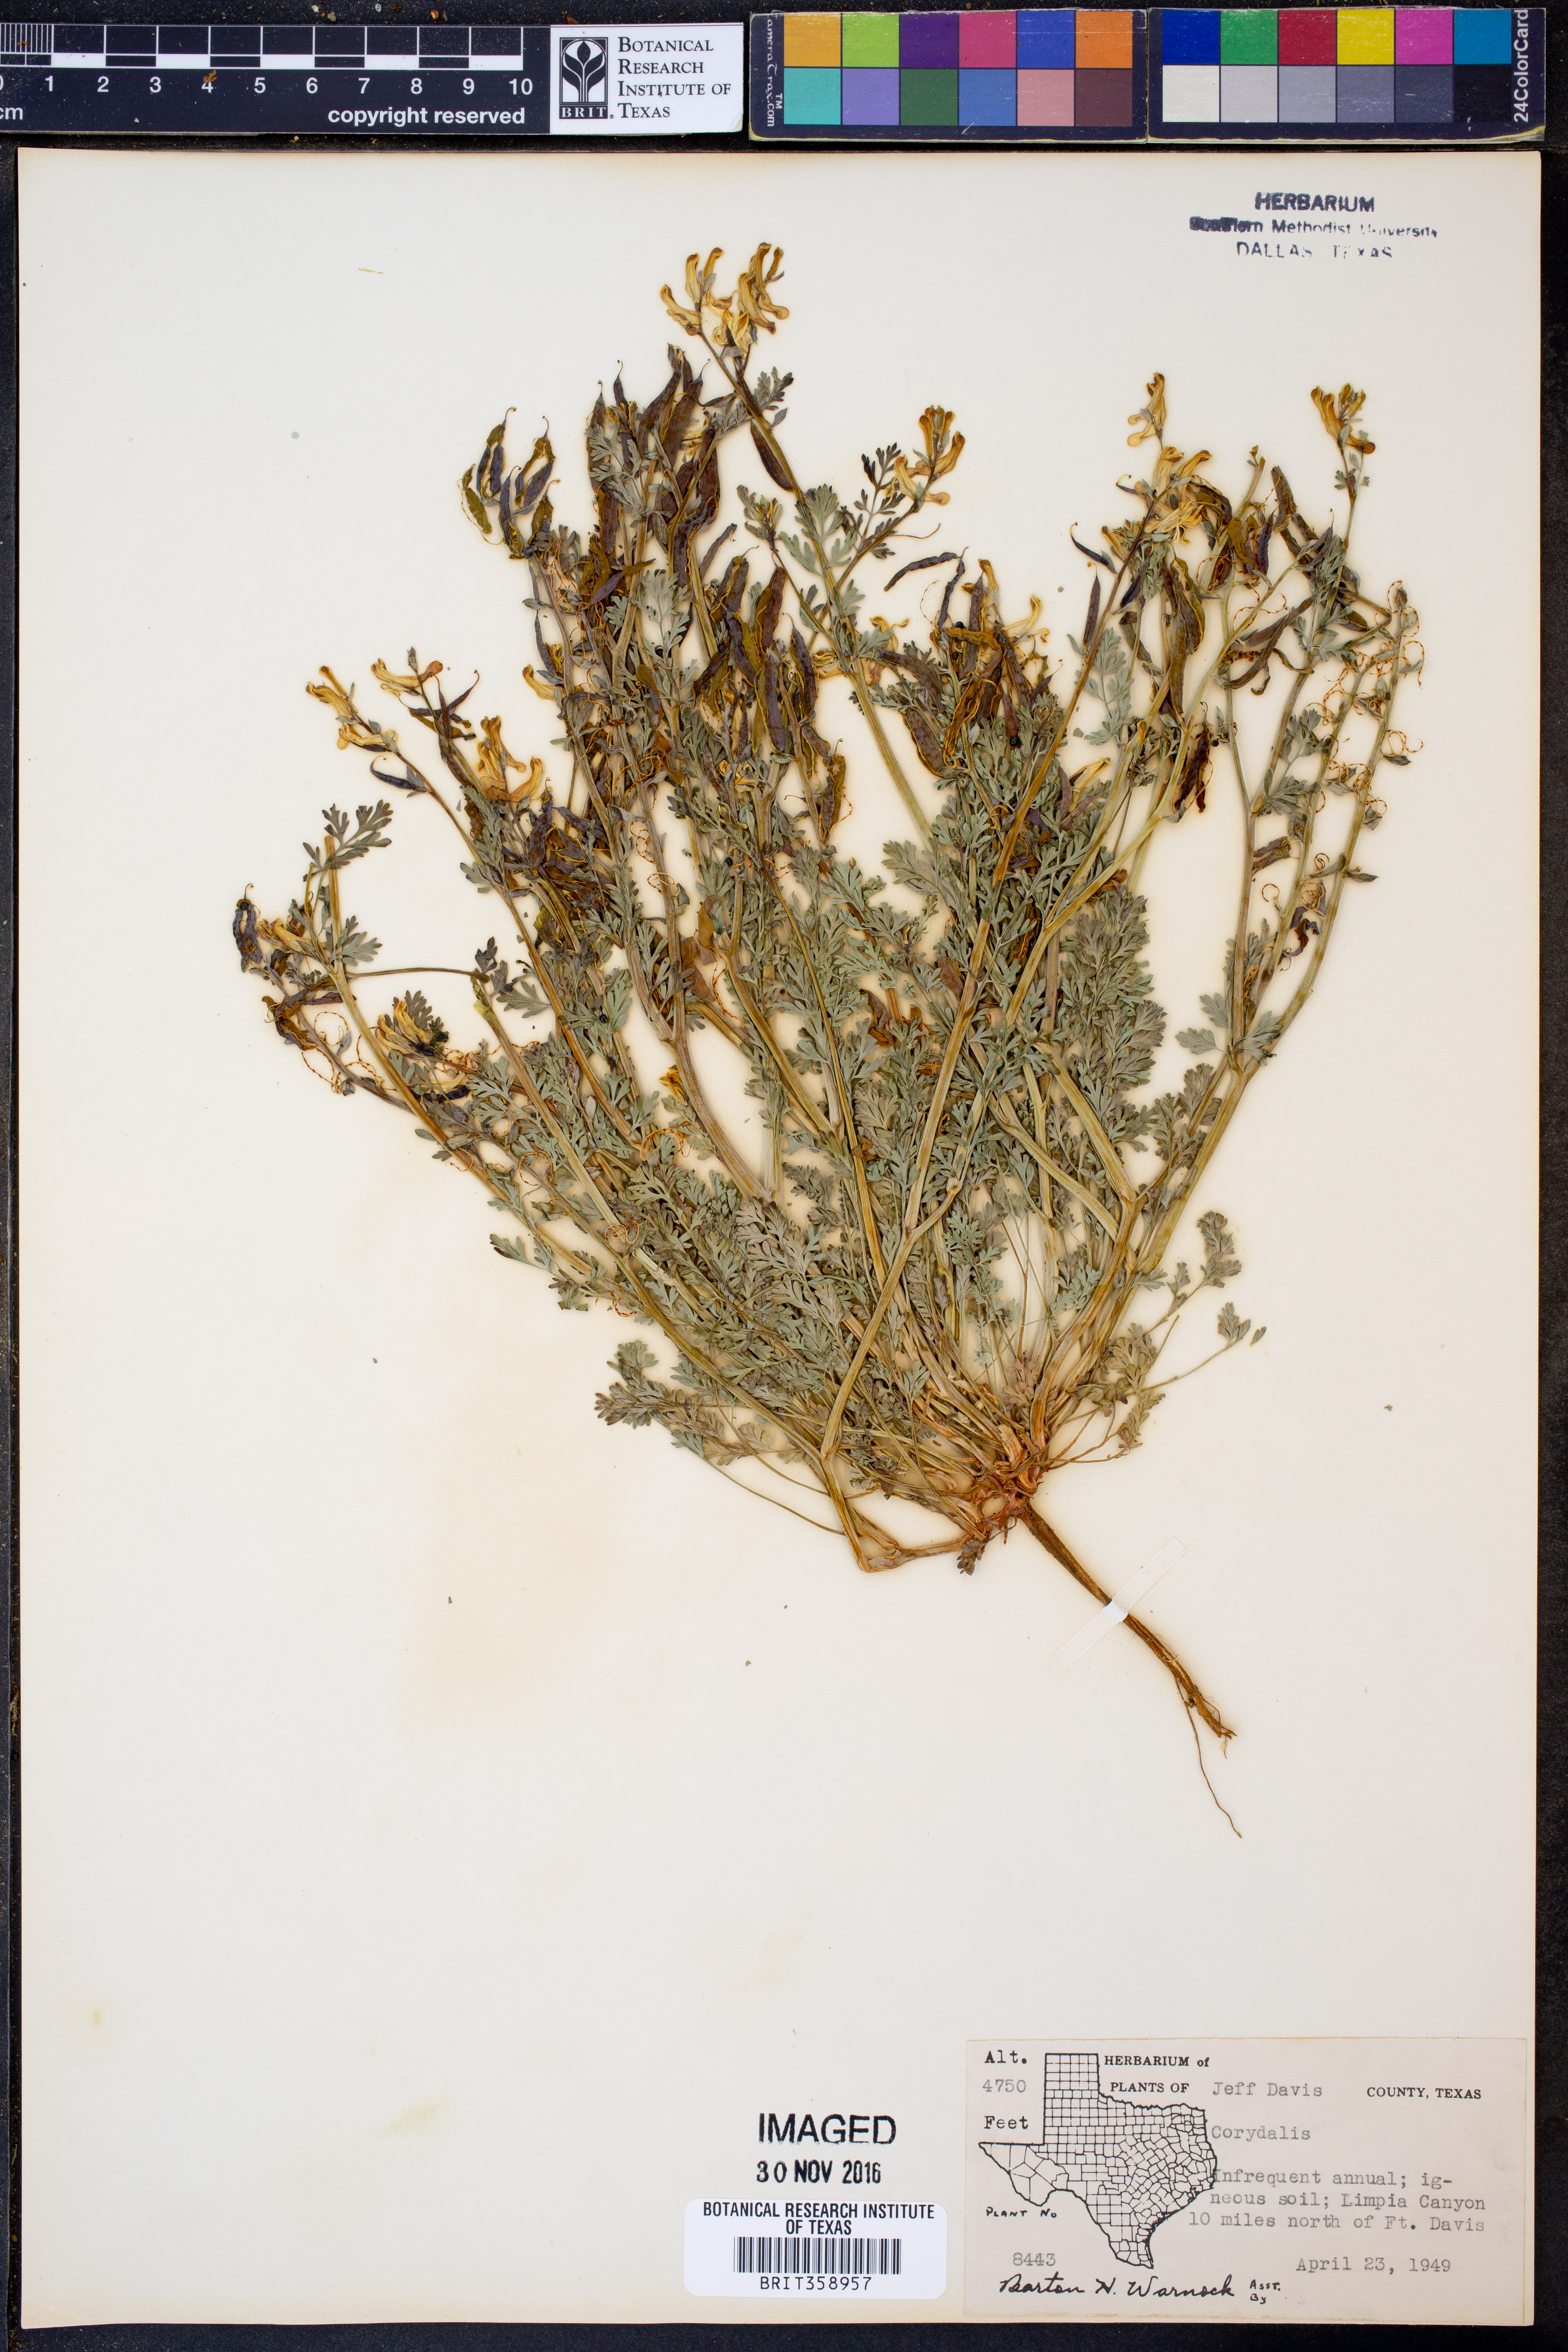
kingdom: Plantae
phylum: Tracheophyta
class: Magnoliopsida
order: Ranunculales
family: Papaveraceae
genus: Corydalis
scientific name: Corydalis
